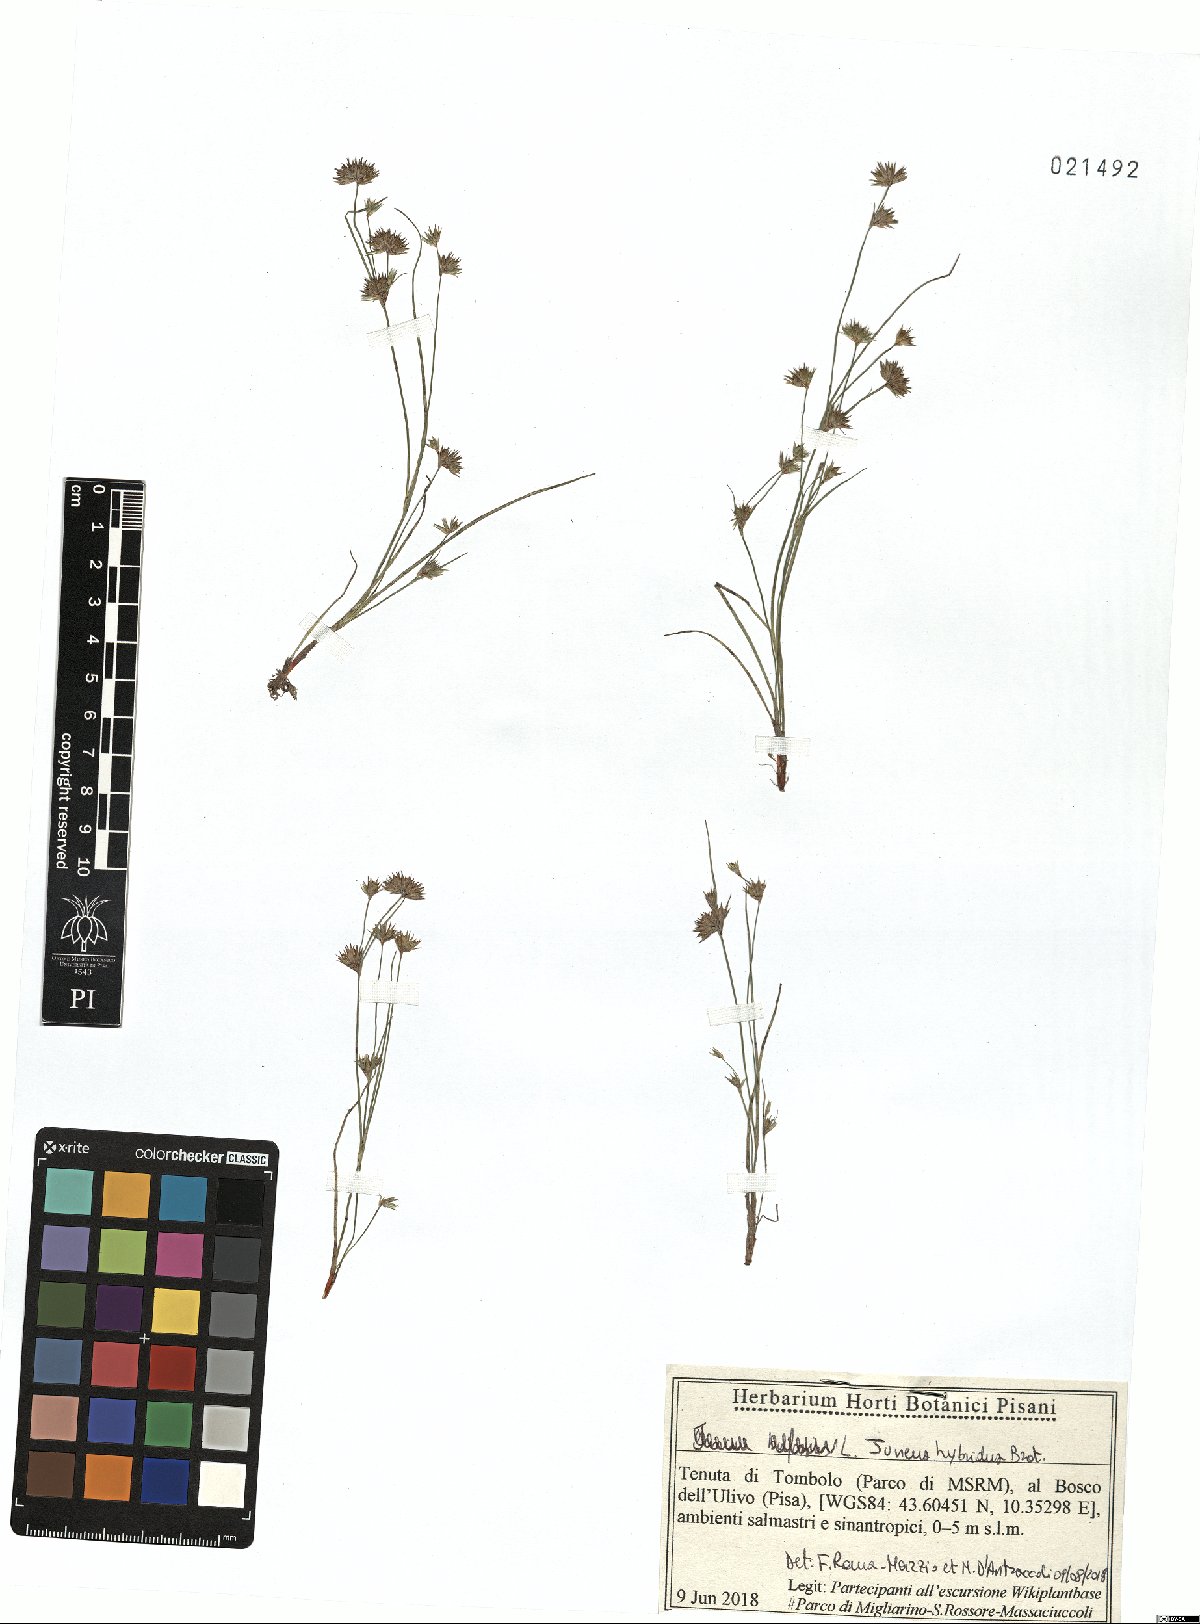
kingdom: Plantae
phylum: Tracheophyta
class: Liliopsida
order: Poales
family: Juncaceae
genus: Juncus
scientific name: Juncus hybridus
